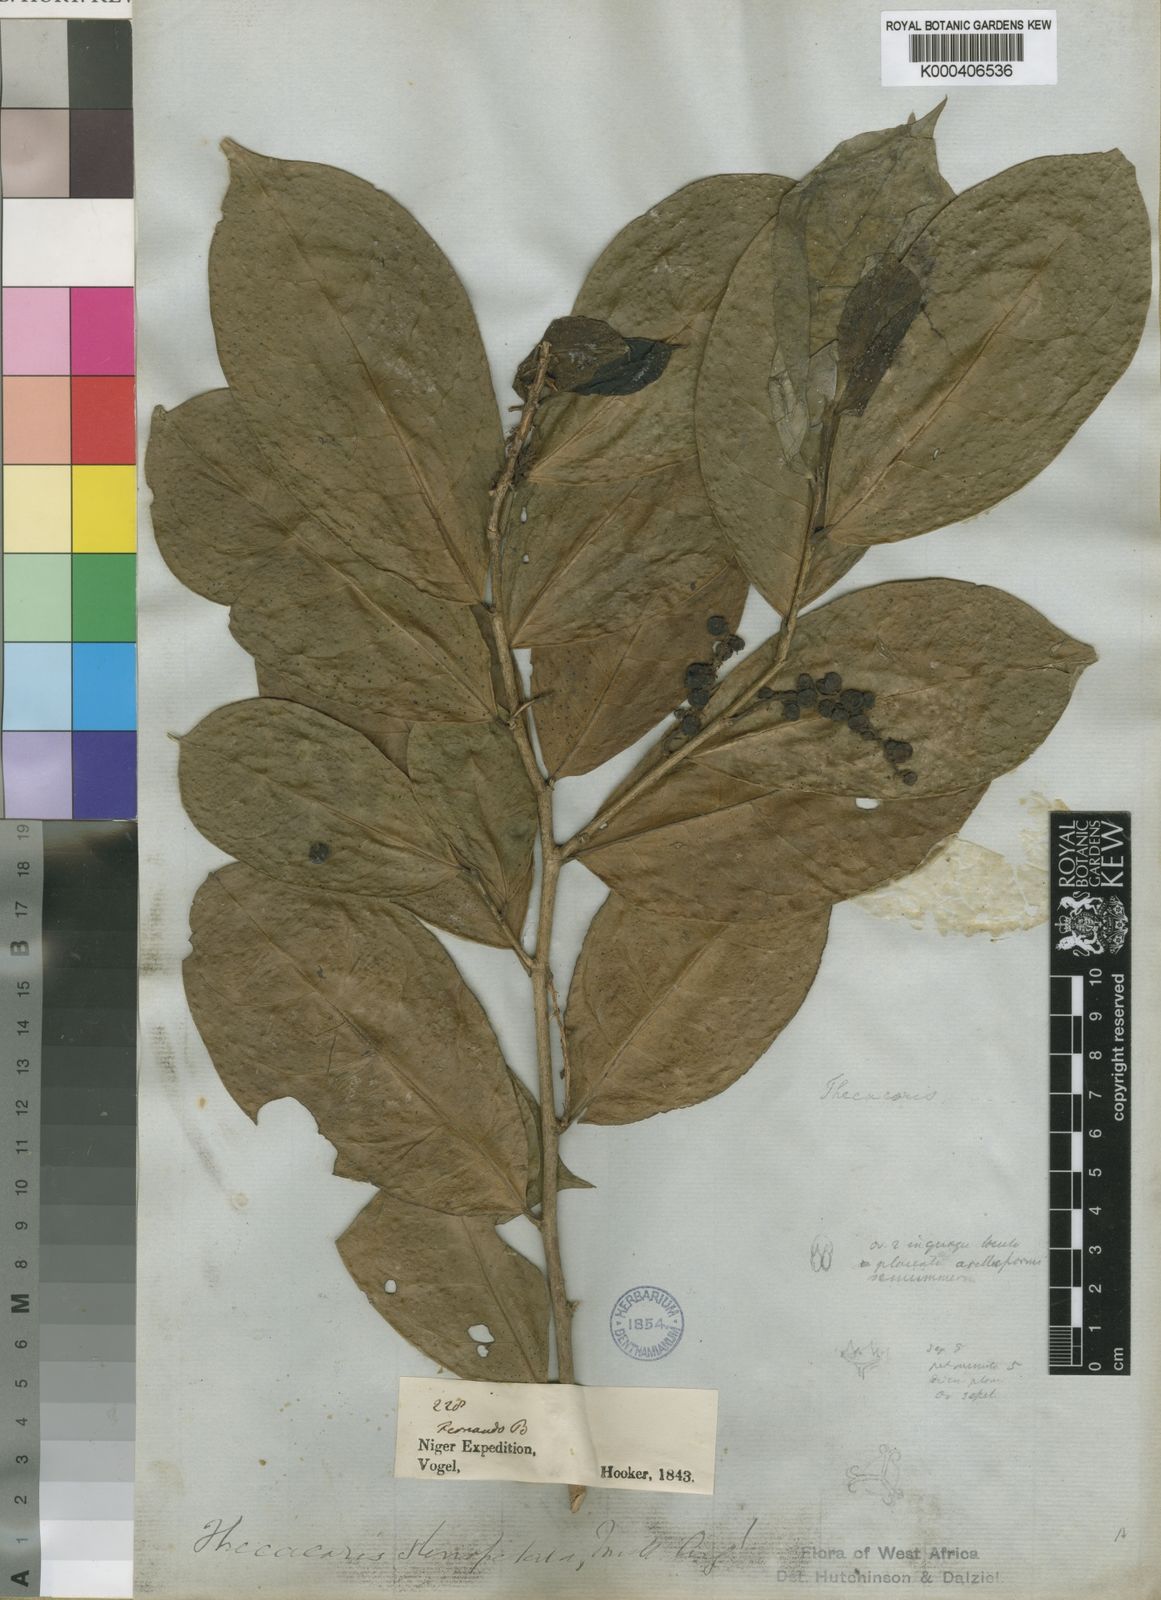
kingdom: Plantae
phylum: Tracheophyta
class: Magnoliopsida
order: Malpighiales
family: Phyllanthaceae
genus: Thecacoris
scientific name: Thecacoris
